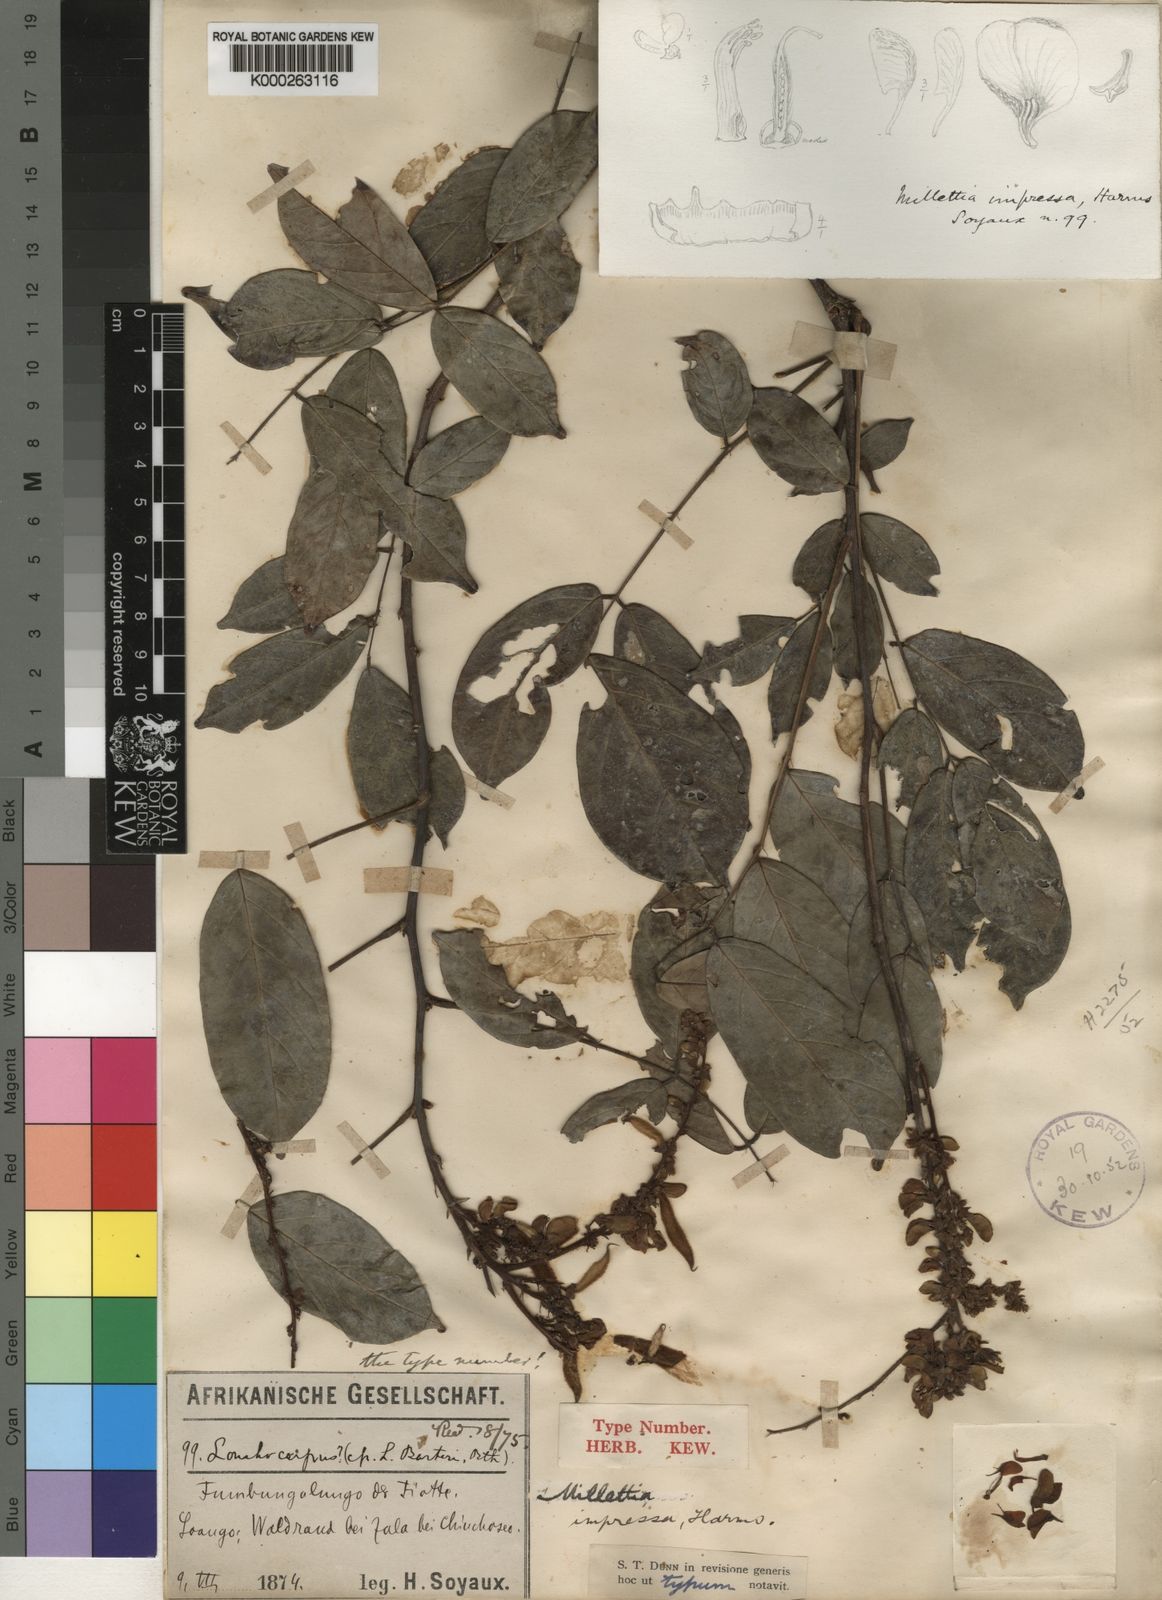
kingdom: Plantae
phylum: Tracheophyta
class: Magnoliopsida
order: Fabales
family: Fabaceae
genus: Millettia
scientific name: Millettia impressa
